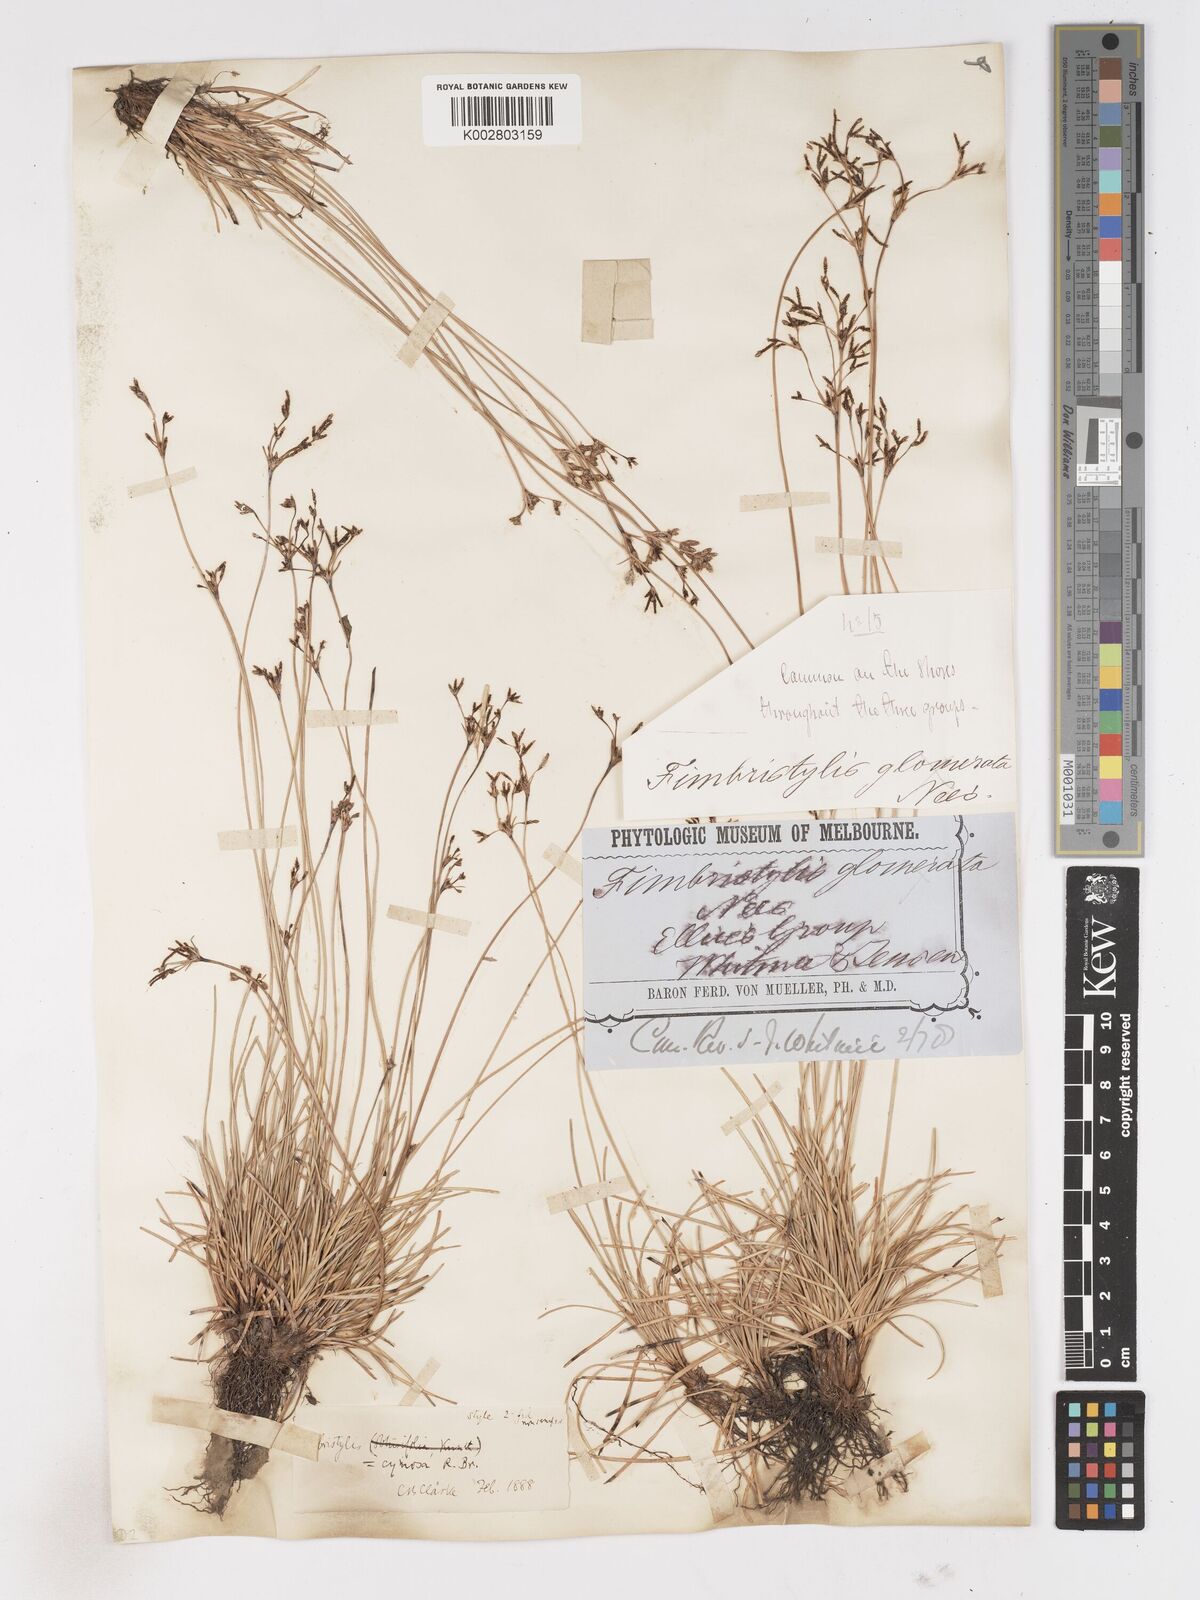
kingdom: Plantae
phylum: Tracheophyta
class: Liliopsida
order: Poales
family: Cyperaceae
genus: Fimbristylis
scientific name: Fimbristylis cymosa
